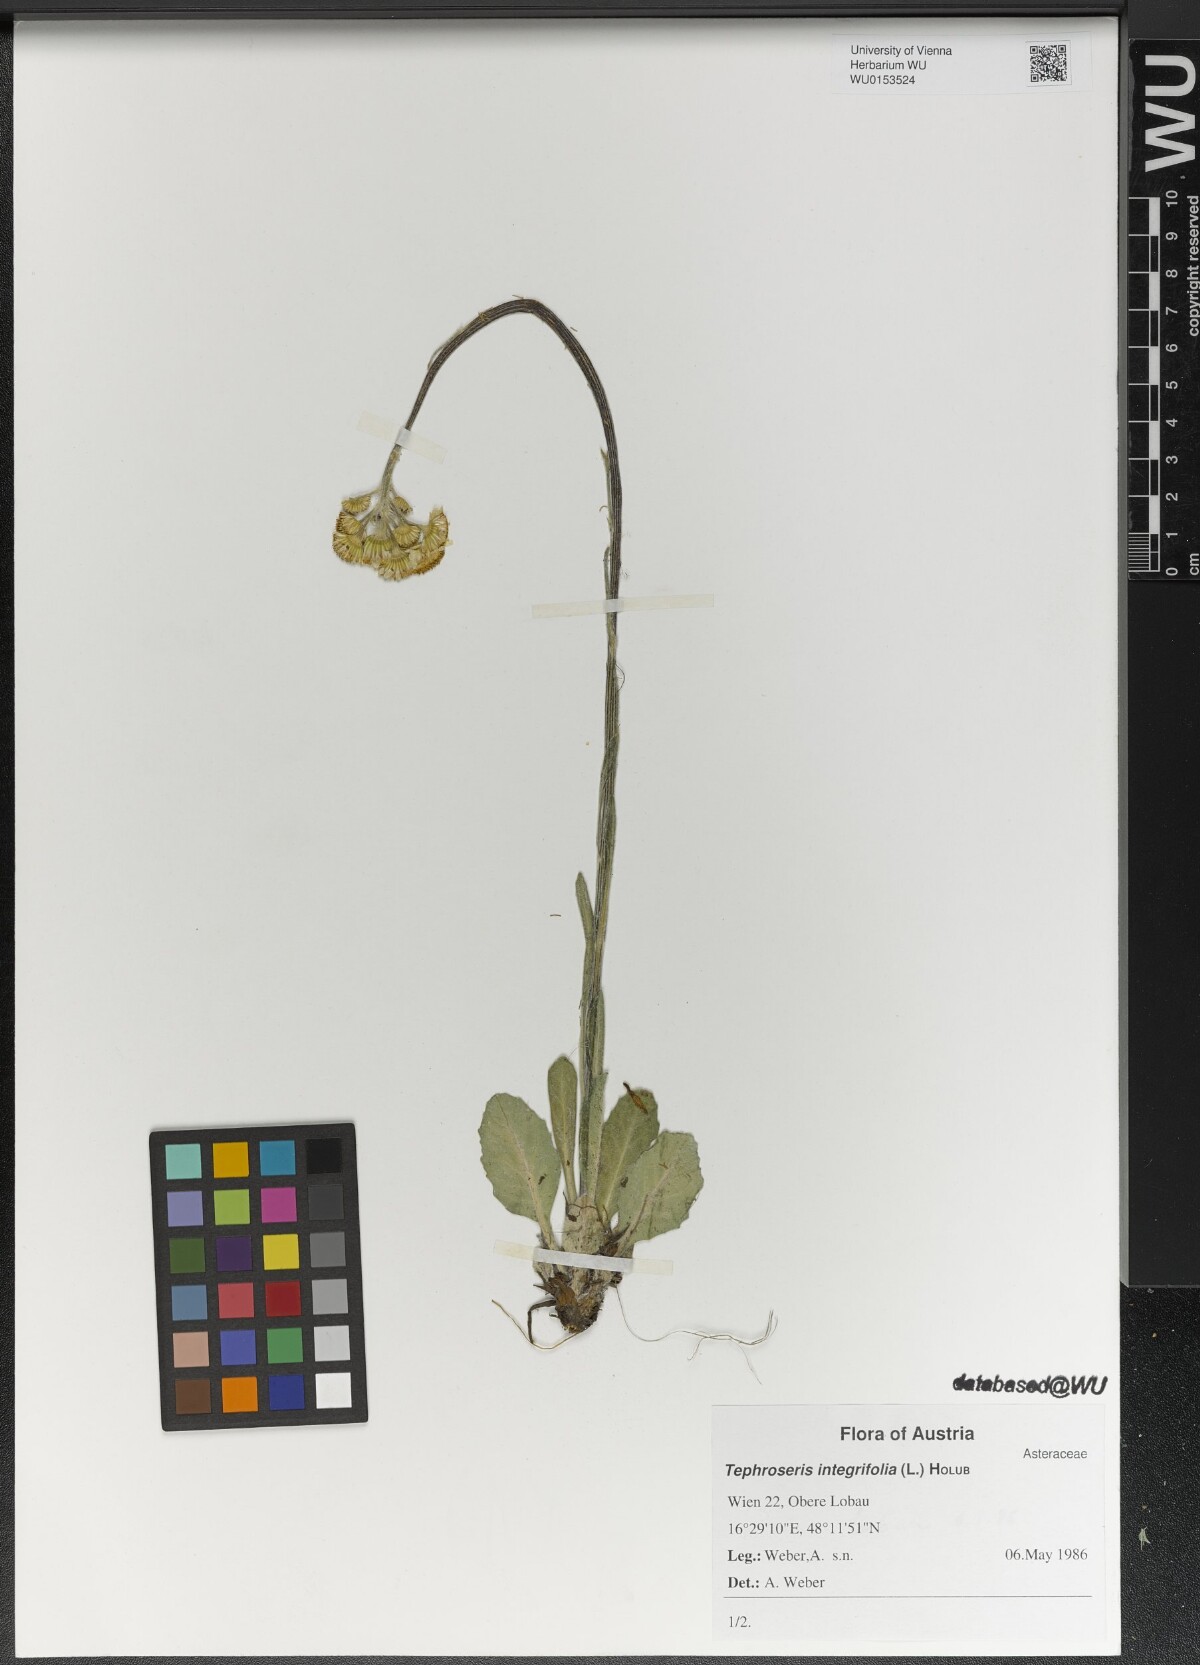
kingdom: Plantae
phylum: Tracheophyta
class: Magnoliopsida
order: Asterales
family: Asteraceae
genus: Tephroseris
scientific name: Tephroseris integrifolia
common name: Field fleawort
